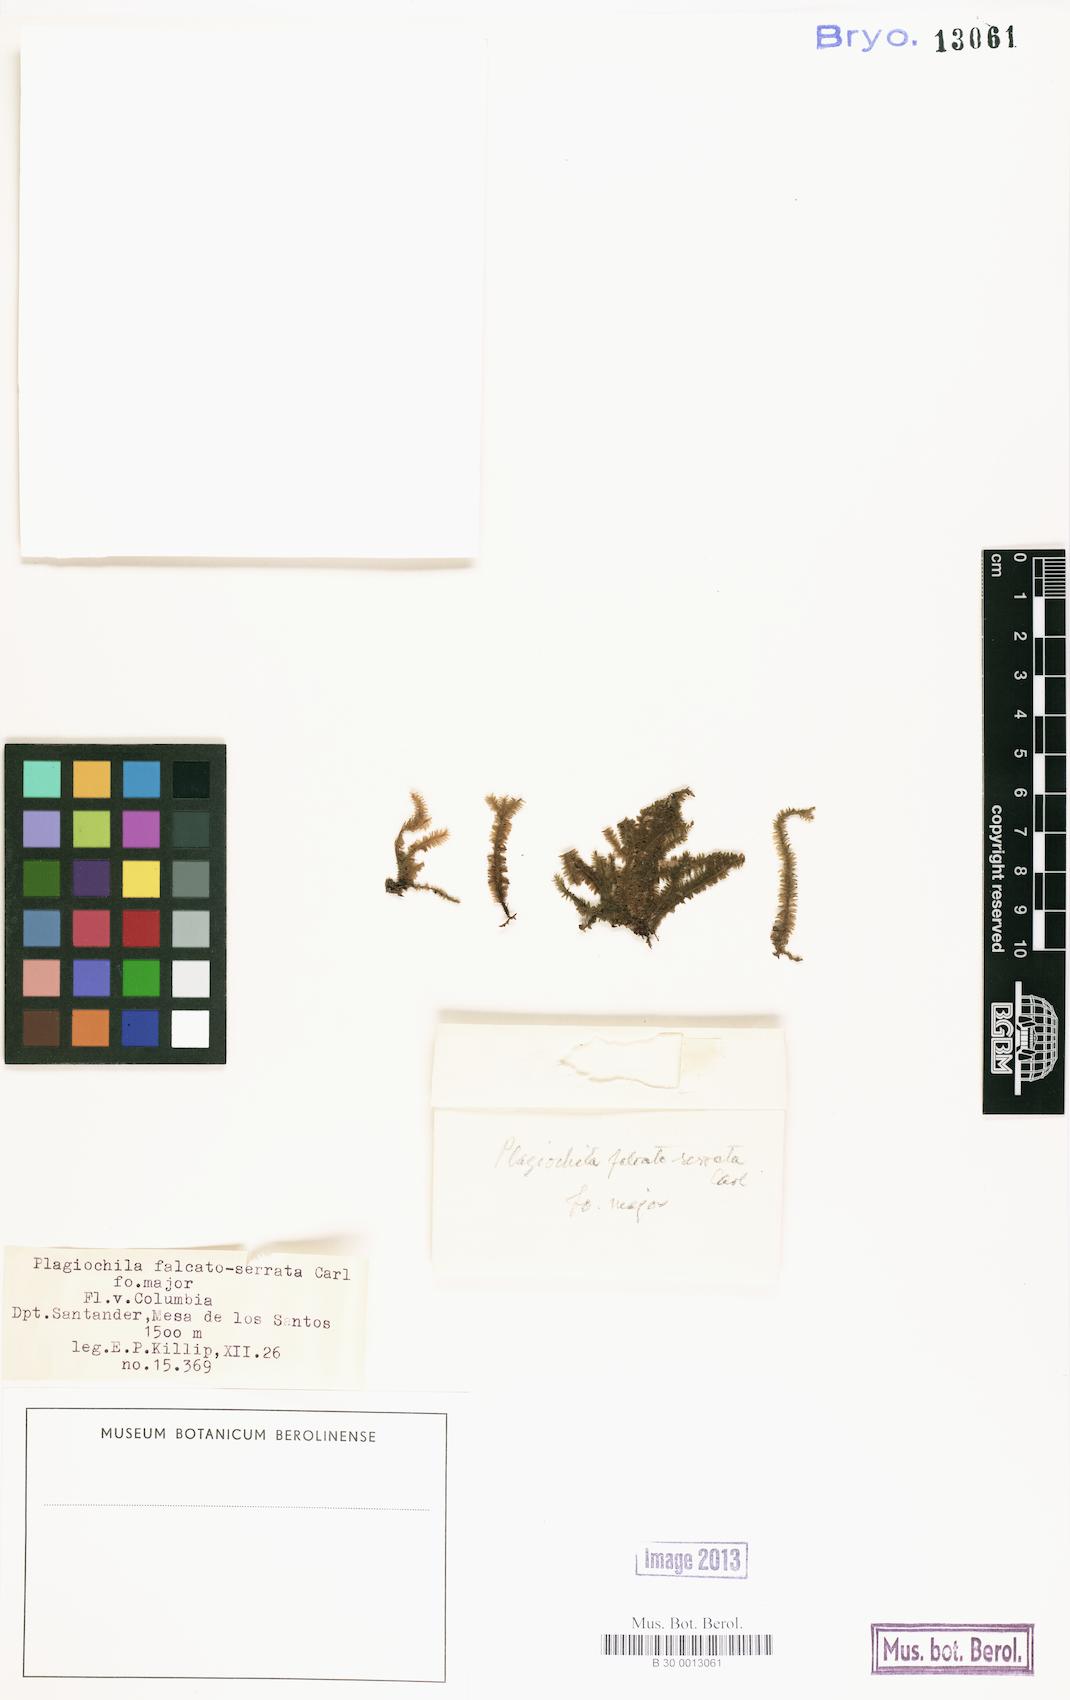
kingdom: Plantae
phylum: Marchantiophyta
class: Jungermanniopsida
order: Jungermanniales
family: Plagiochilaceae
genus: Plagiochila
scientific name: Plagiochila disticha
